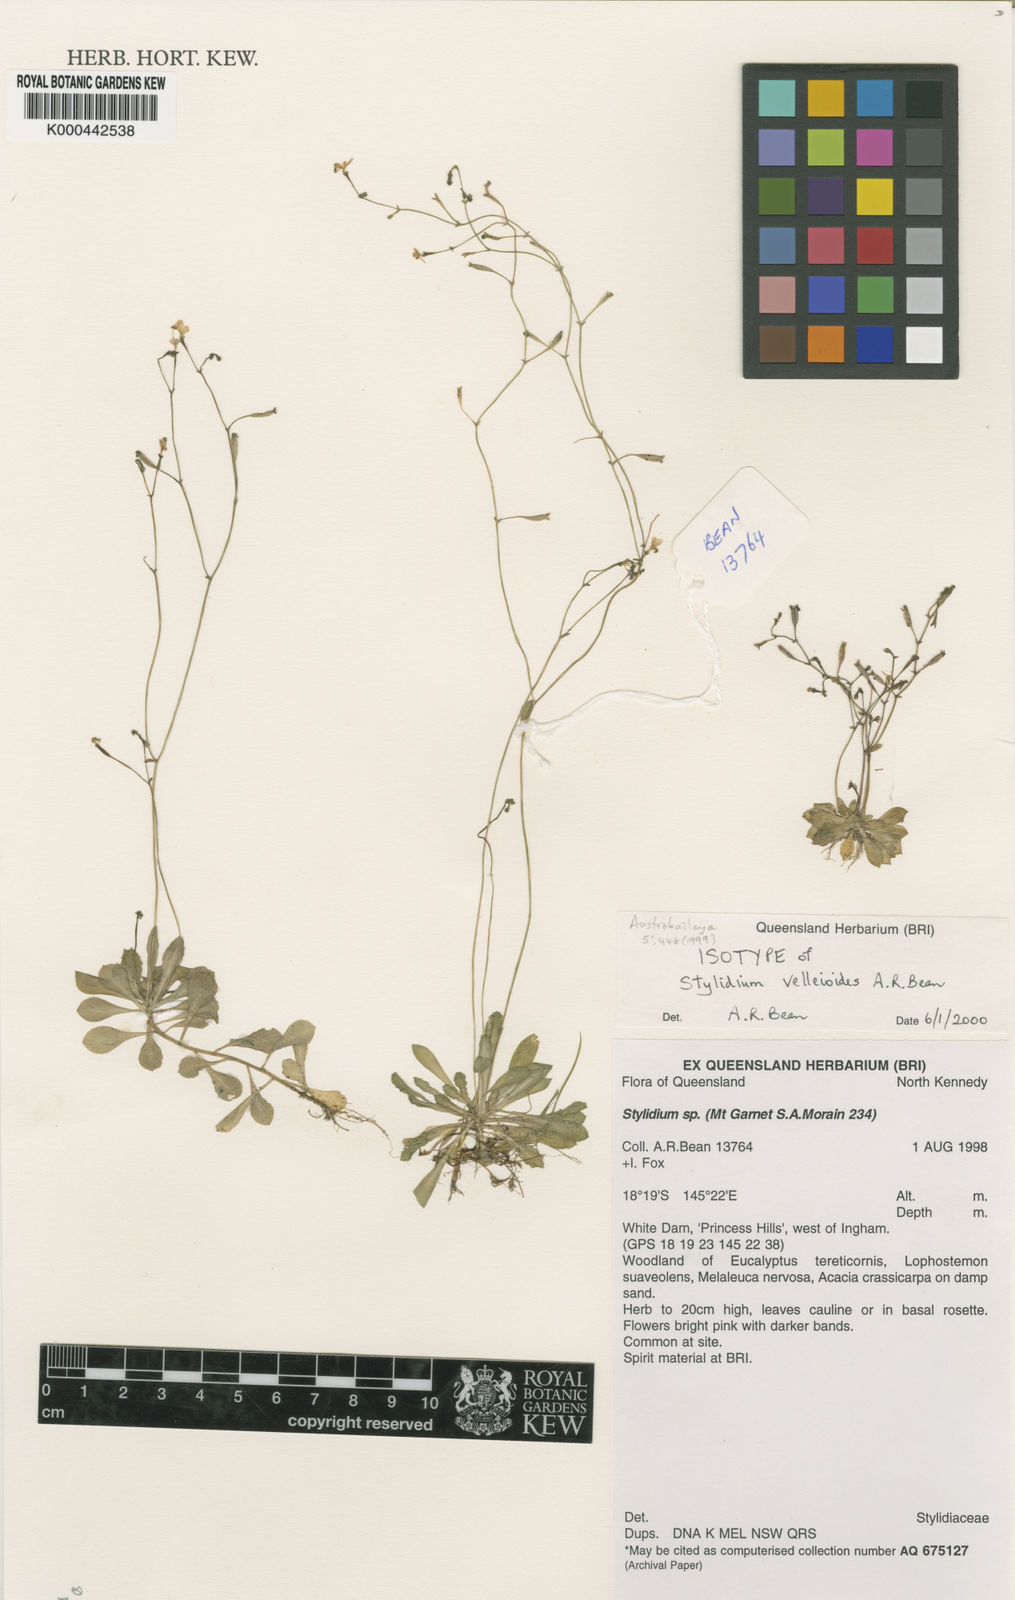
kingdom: Plantae
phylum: Tracheophyta
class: Magnoliopsida
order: Asterales
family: Stylidiaceae
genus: Stylidium
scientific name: Stylidium velleioides
